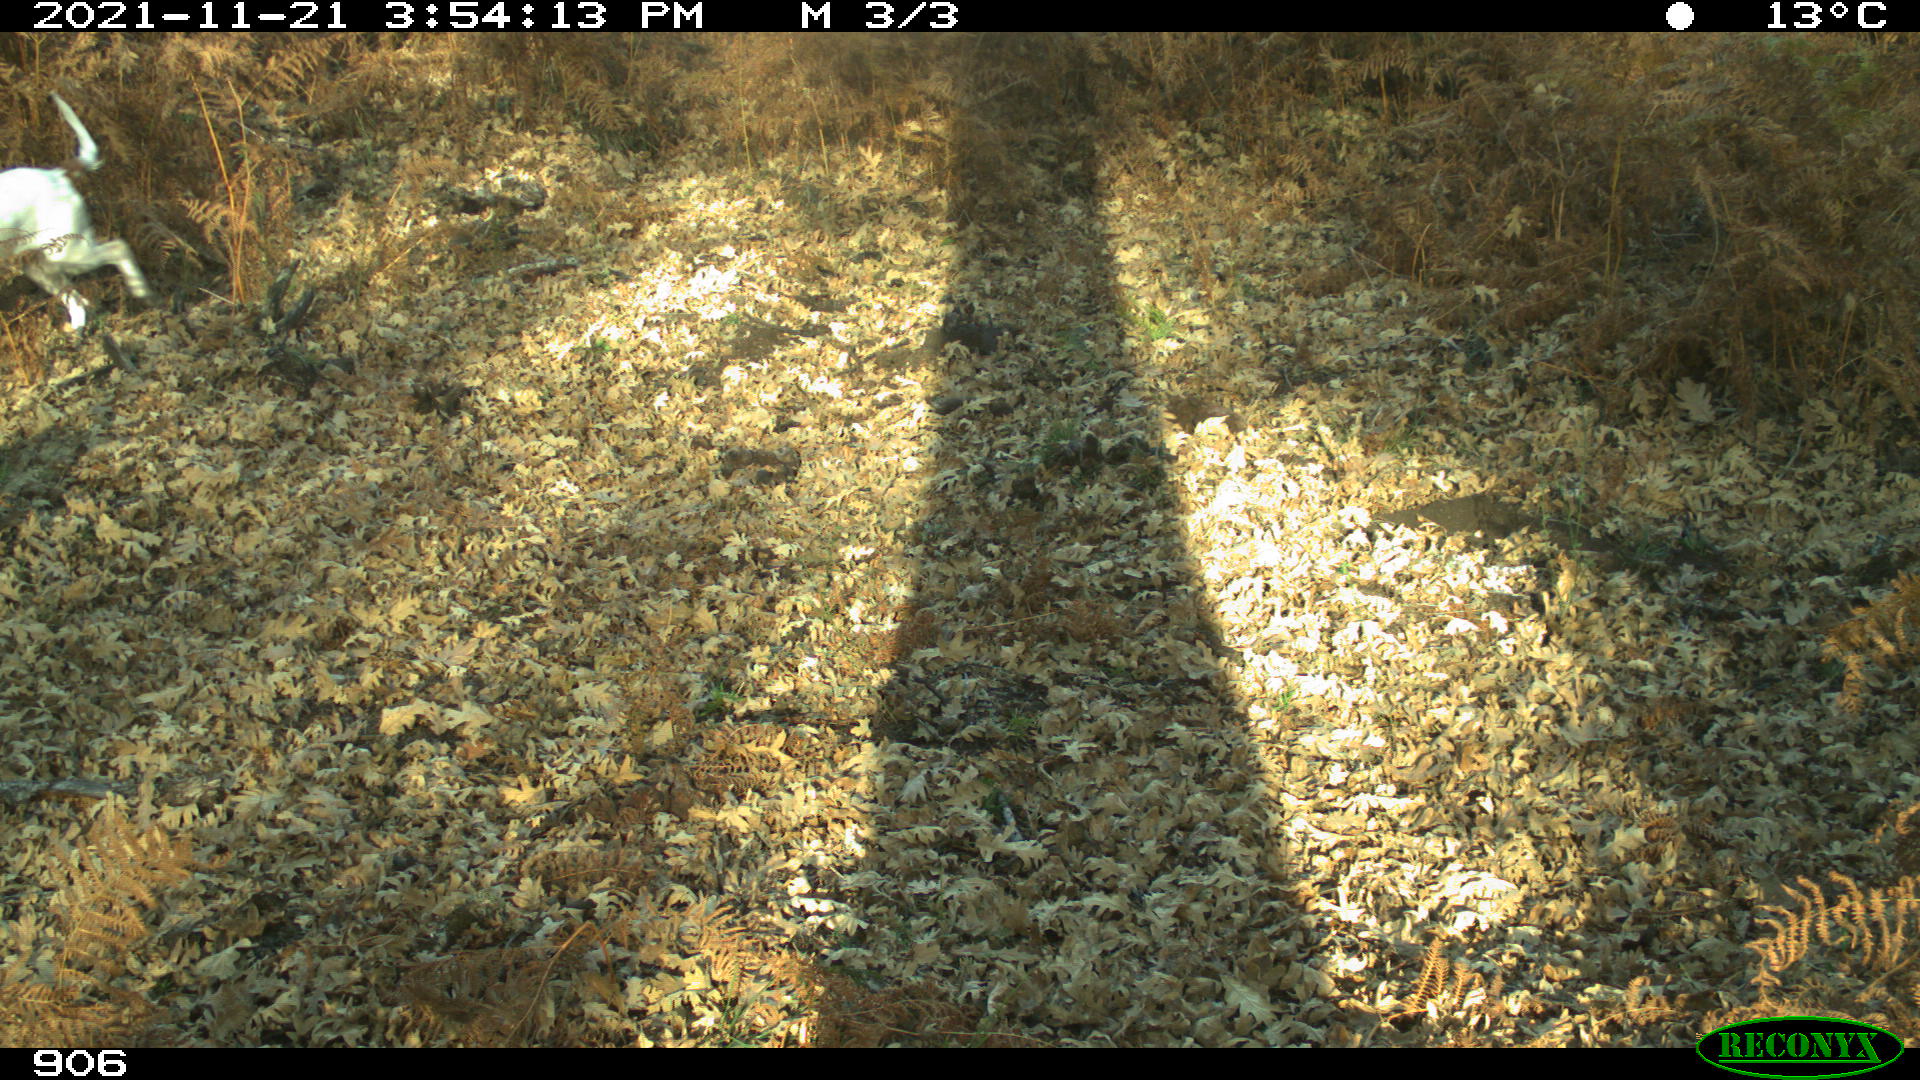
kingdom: Animalia
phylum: Chordata
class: Mammalia
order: Carnivora
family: Canidae
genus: Canis
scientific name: Canis lupus
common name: Gray wolf
